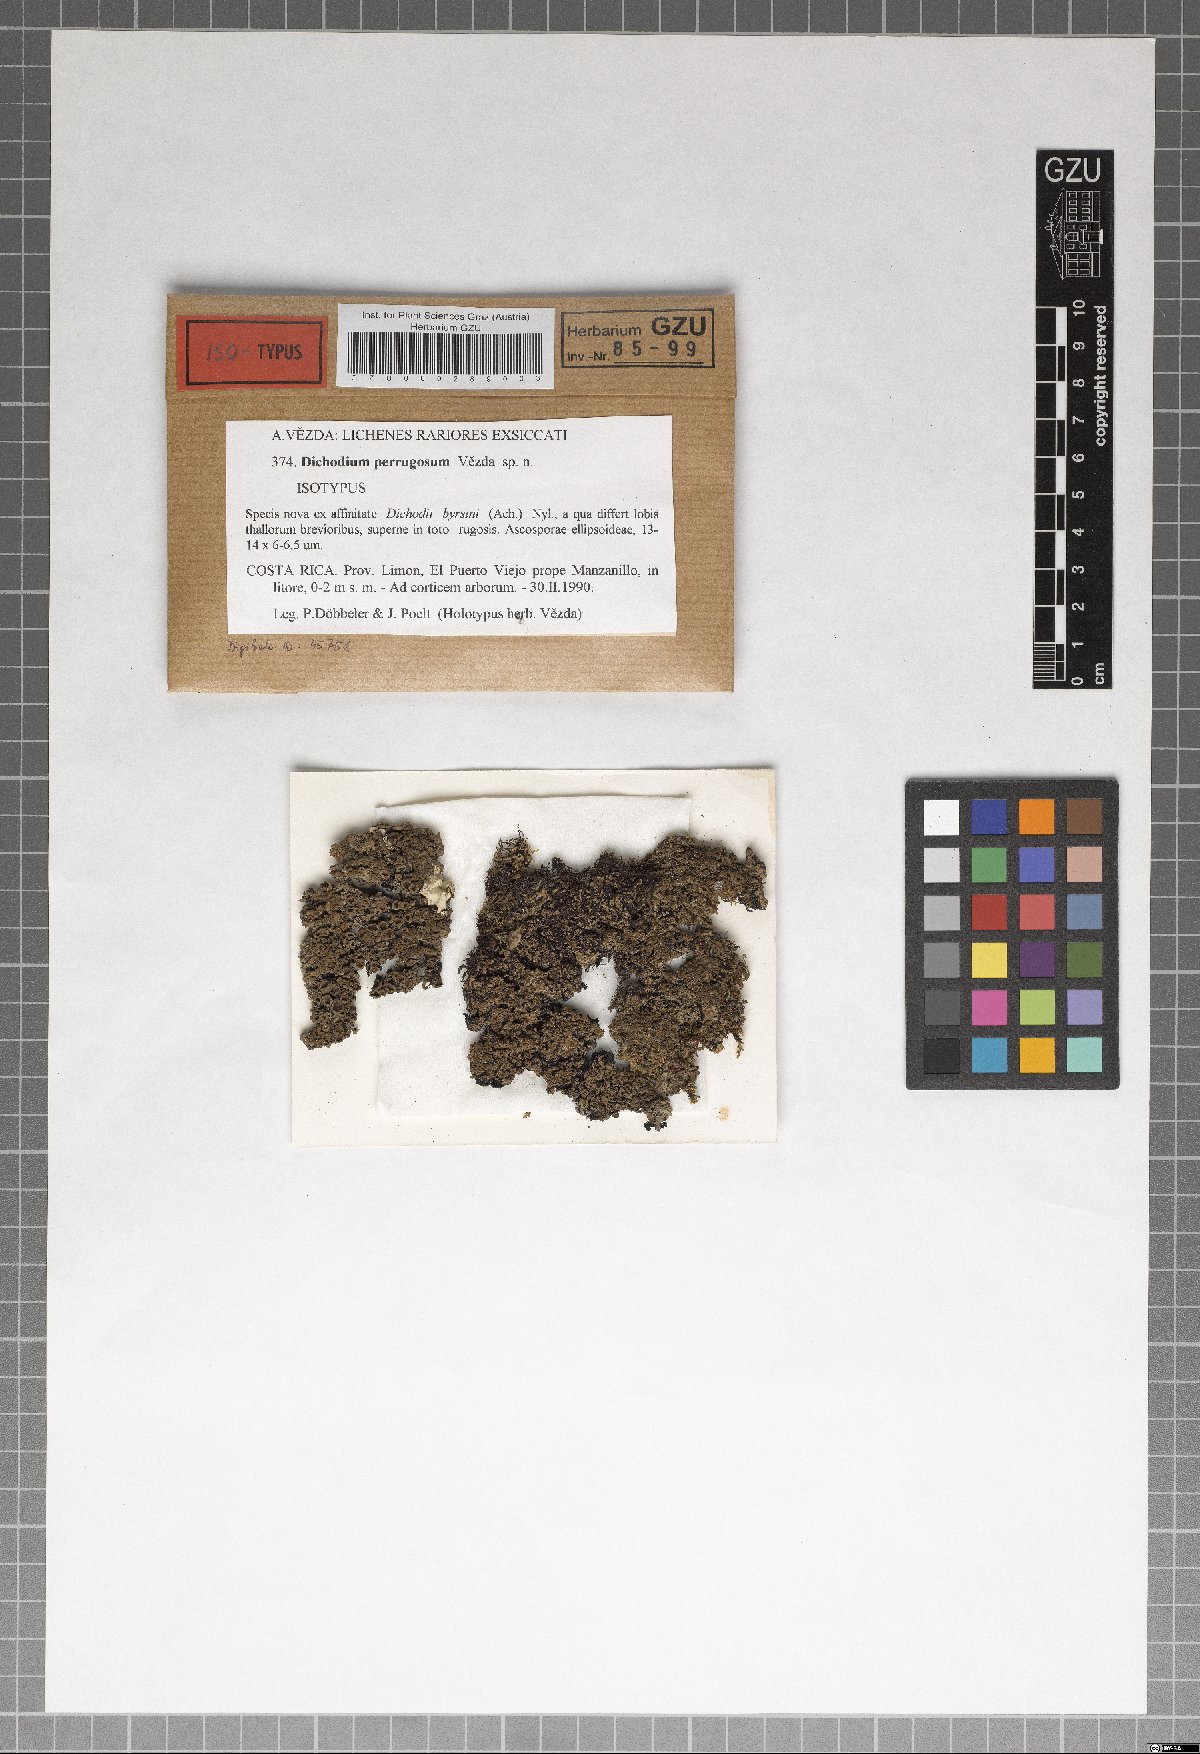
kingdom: Fungi
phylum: Ascomycota
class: Lecanoromycetes
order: Peltigerales
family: Collemataceae
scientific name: Collemataceae
